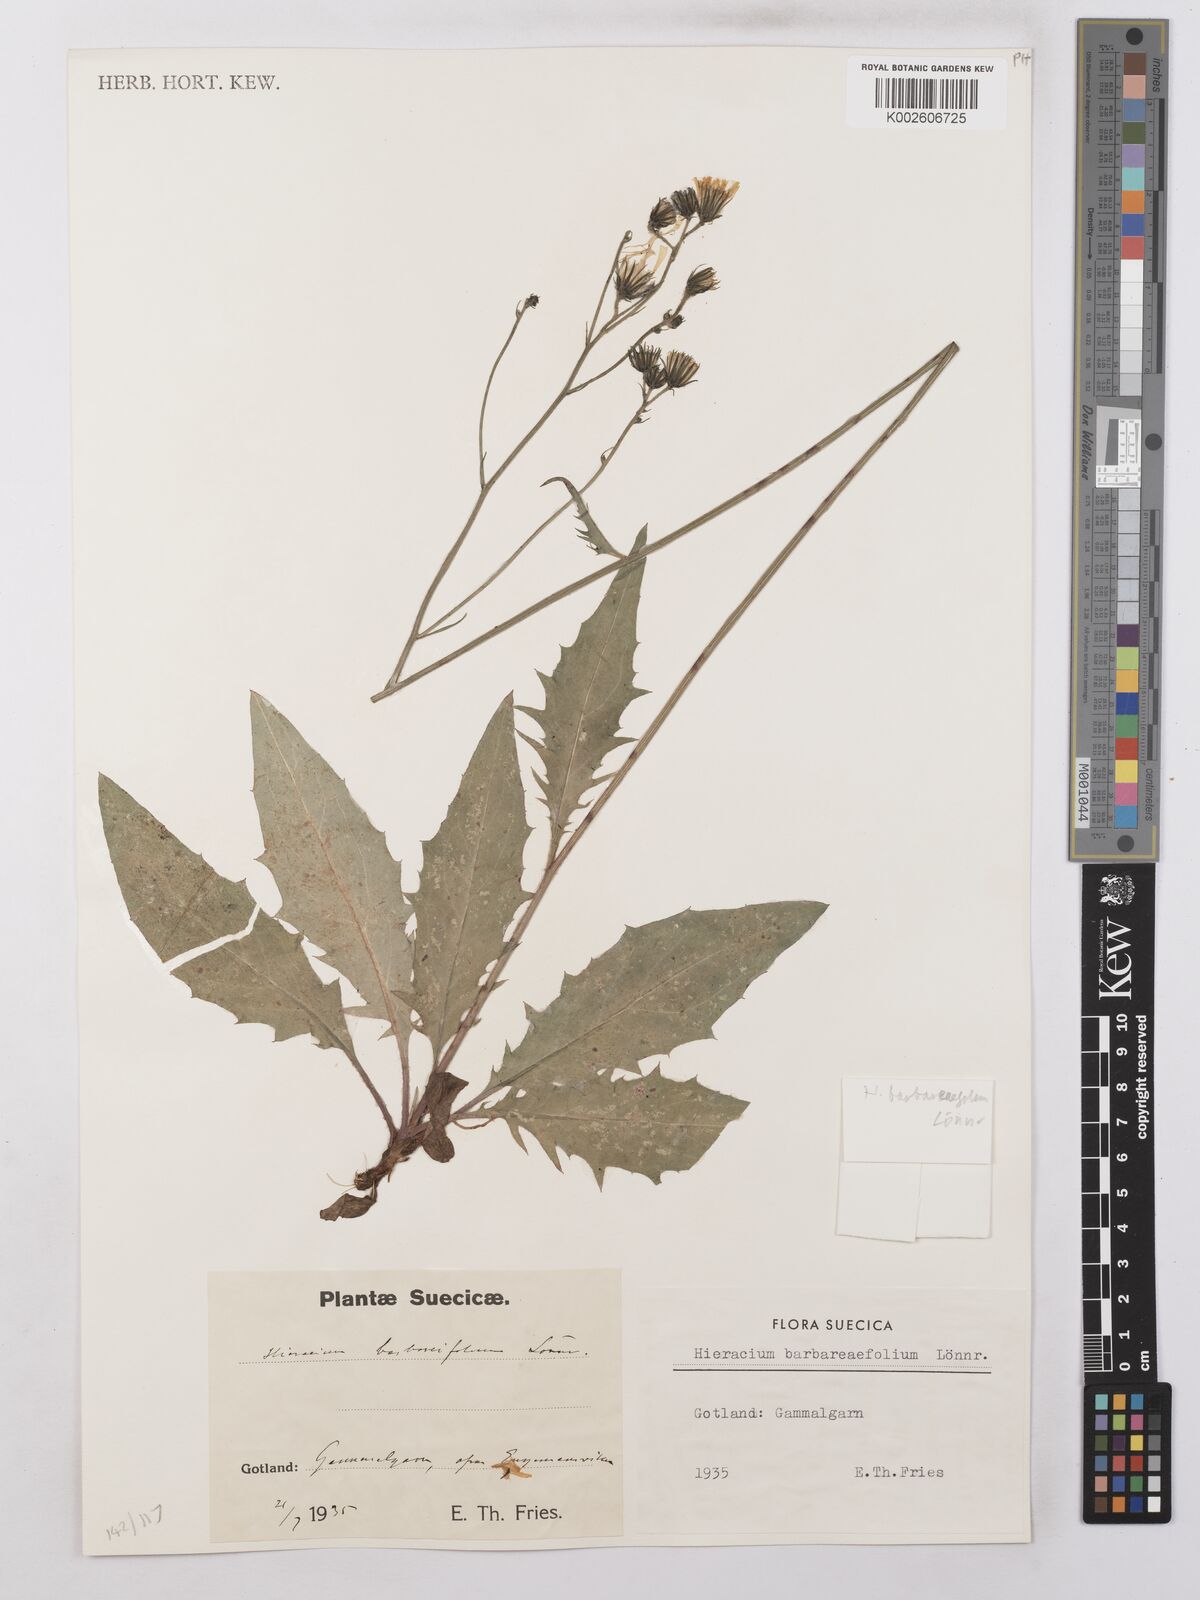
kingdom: Plantae
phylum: Tracheophyta
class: Magnoliopsida
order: Asterales
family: Asteraceae
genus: Hieracium
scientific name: Hieracium lachenalii
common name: Common hawkweed
